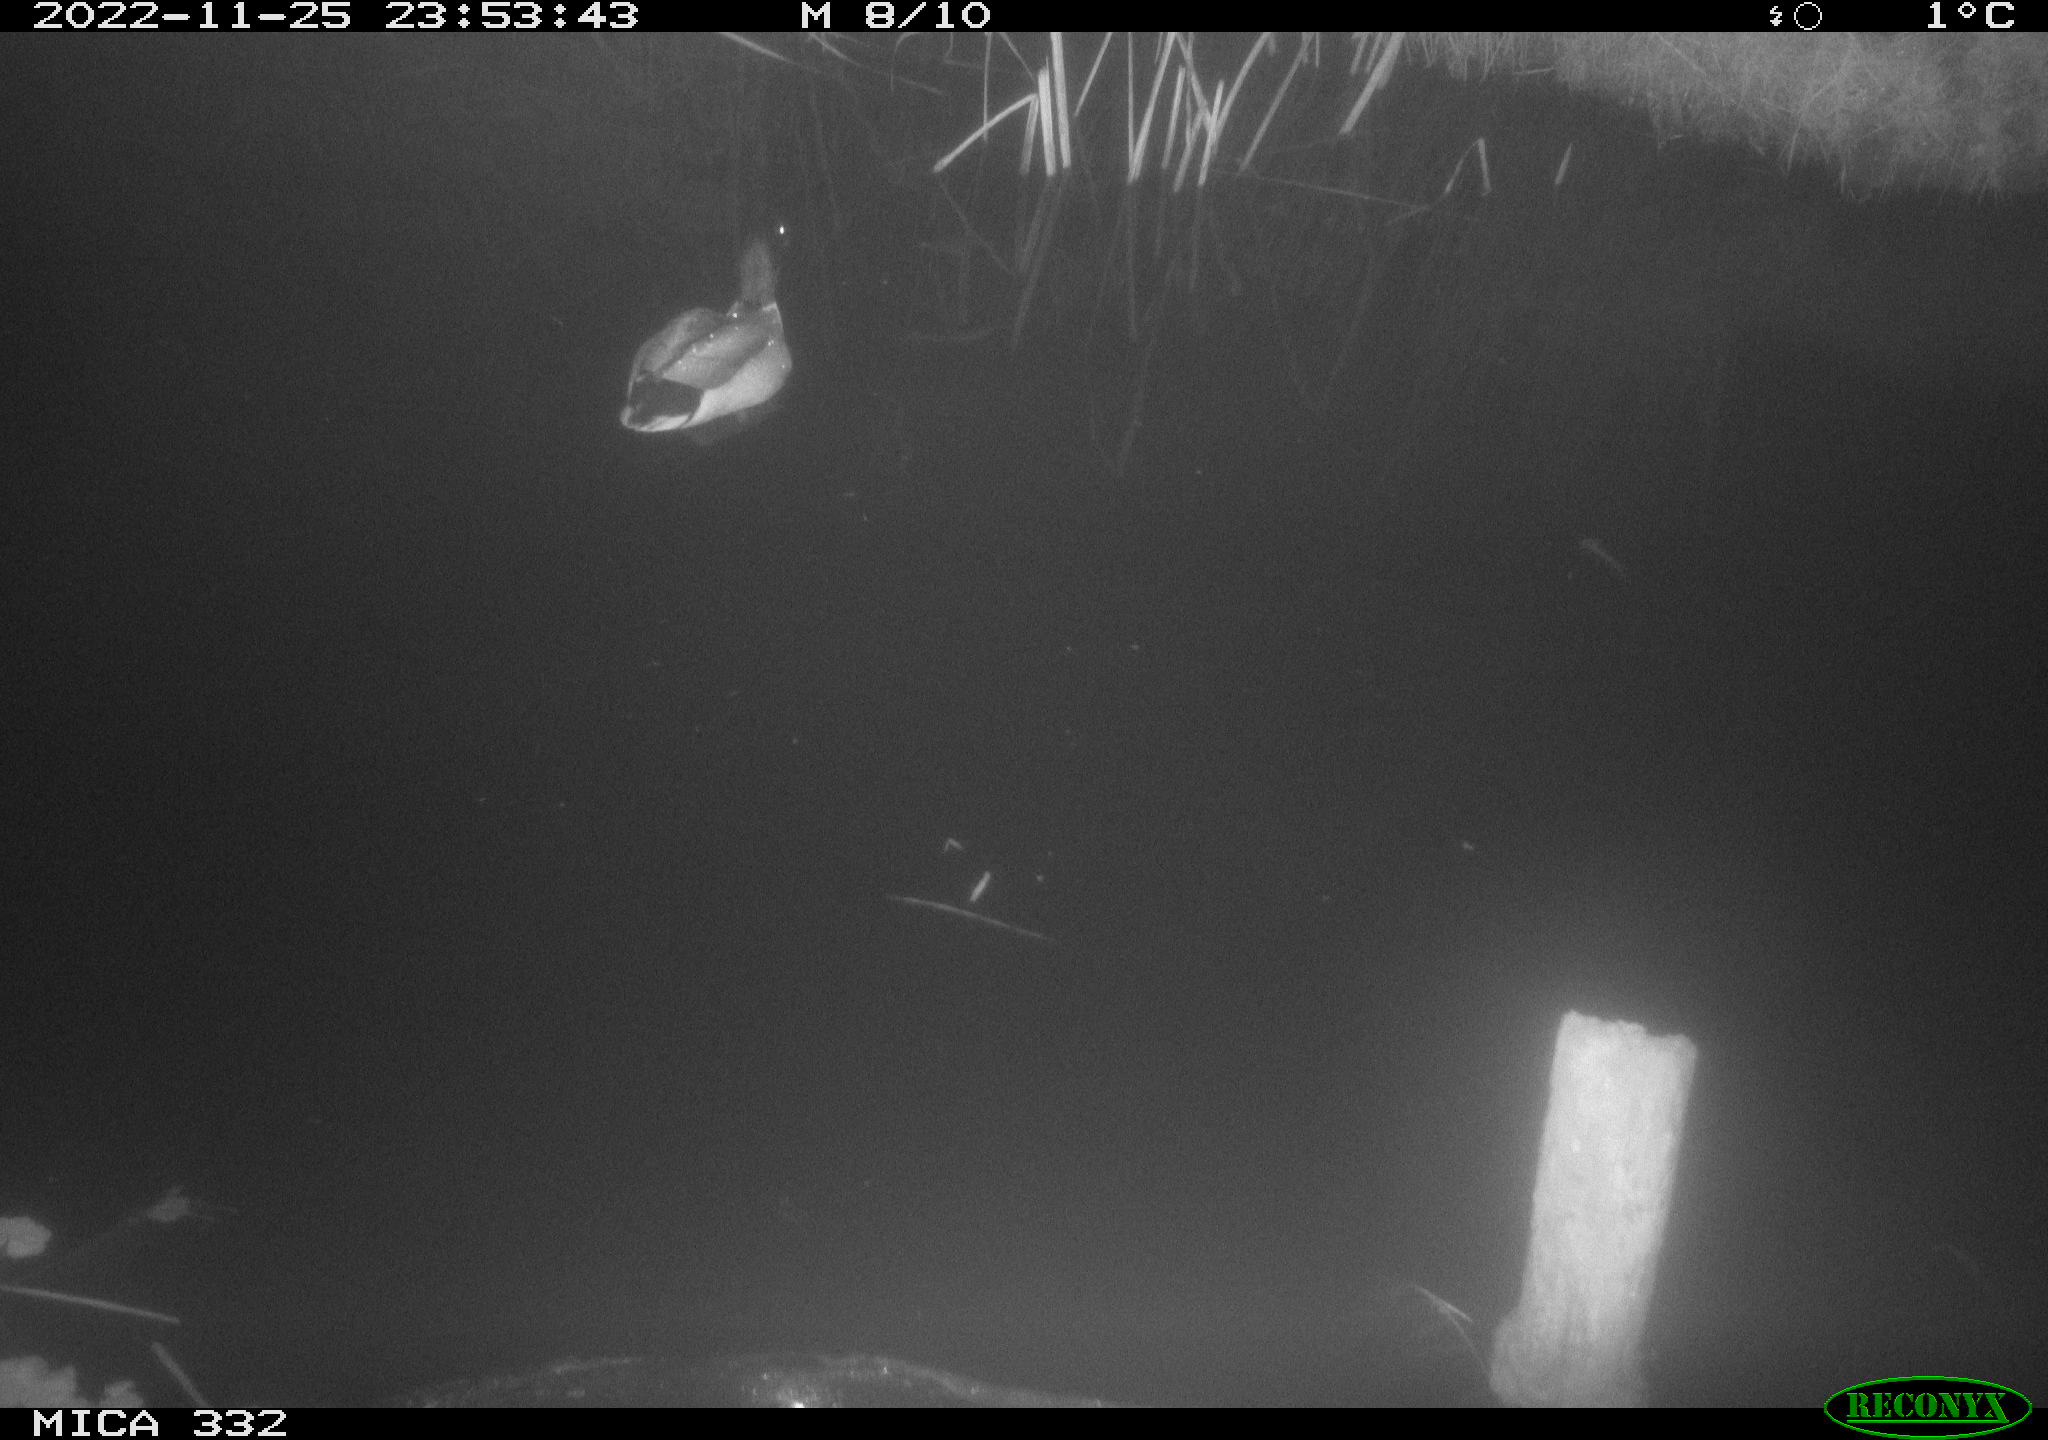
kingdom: Animalia
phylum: Chordata
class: Aves
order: Anseriformes
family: Anatidae
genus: Anas
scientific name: Anas
